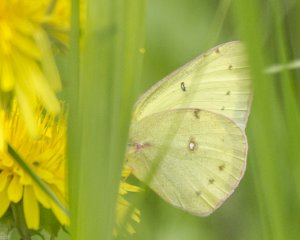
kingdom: Animalia
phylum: Arthropoda
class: Insecta
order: Lepidoptera
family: Pieridae
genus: Colias
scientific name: Colias philodice
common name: Clouded Sulphur
